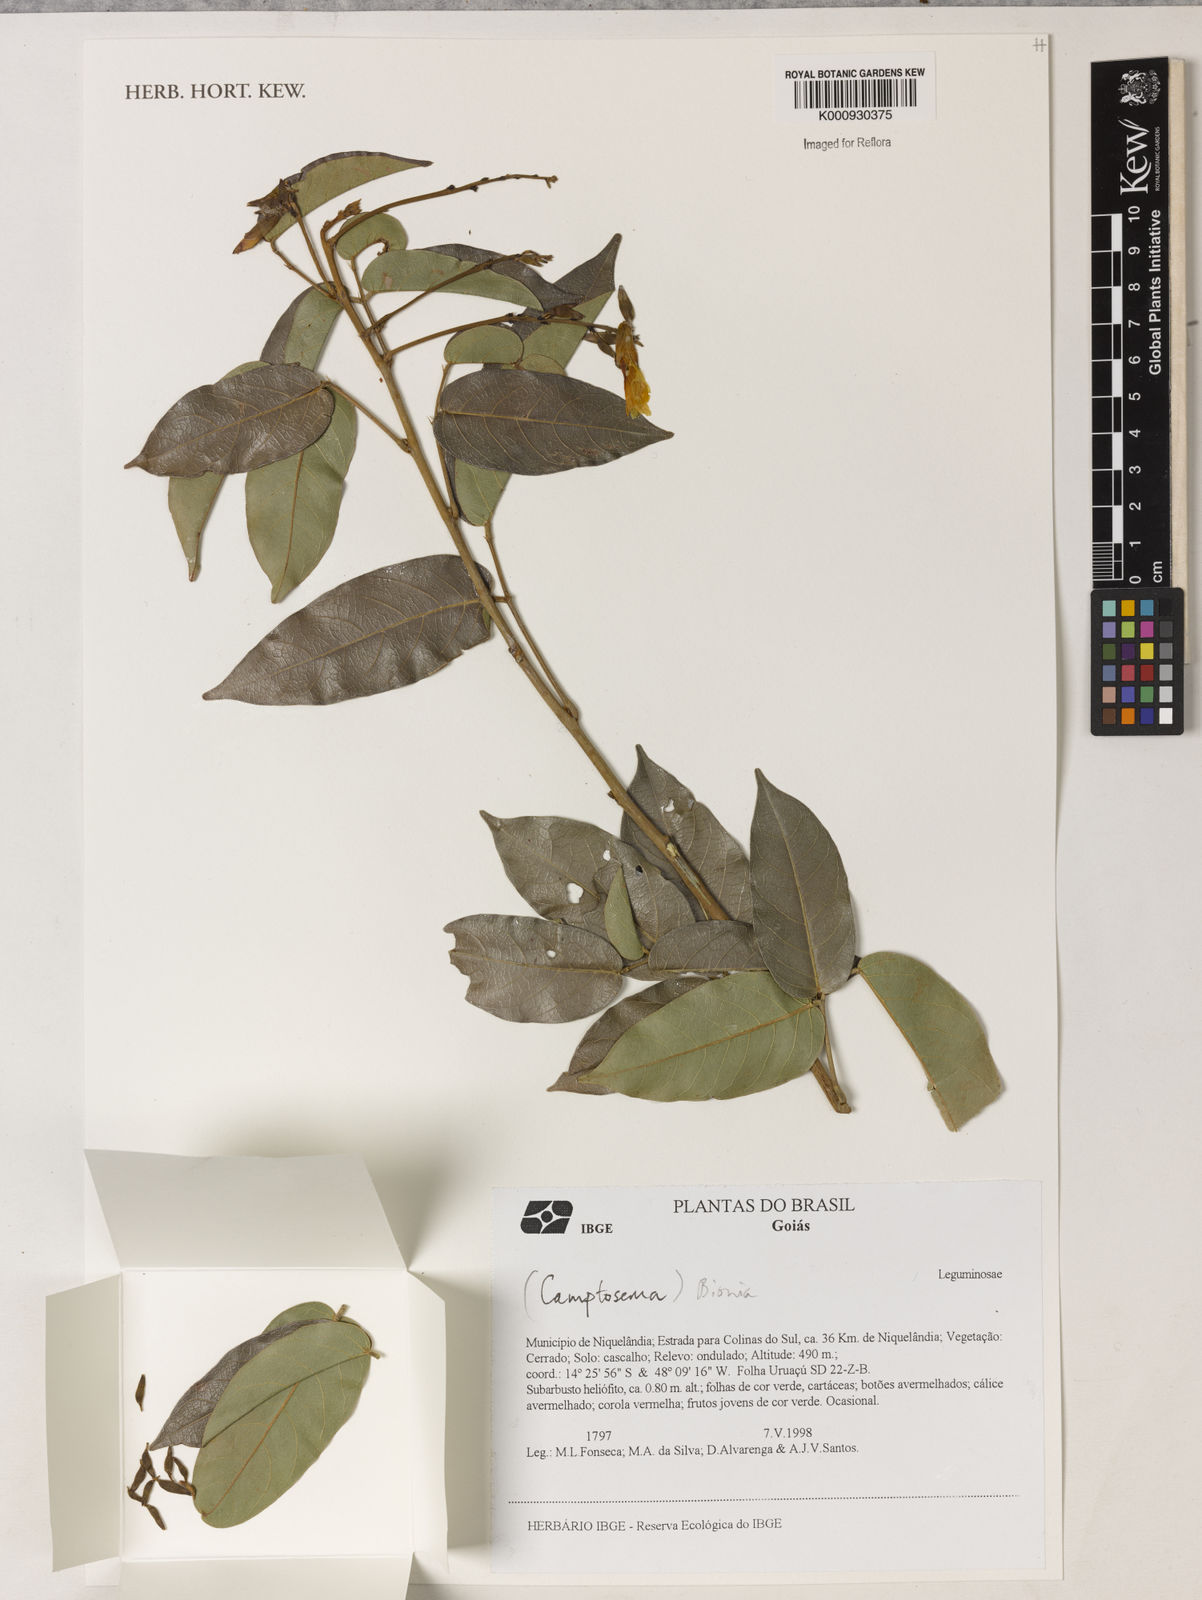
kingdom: Plantae
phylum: Tracheophyta
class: Magnoliopsida
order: Fabales
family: Fabaceae
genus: Camptosema
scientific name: Camptosema
